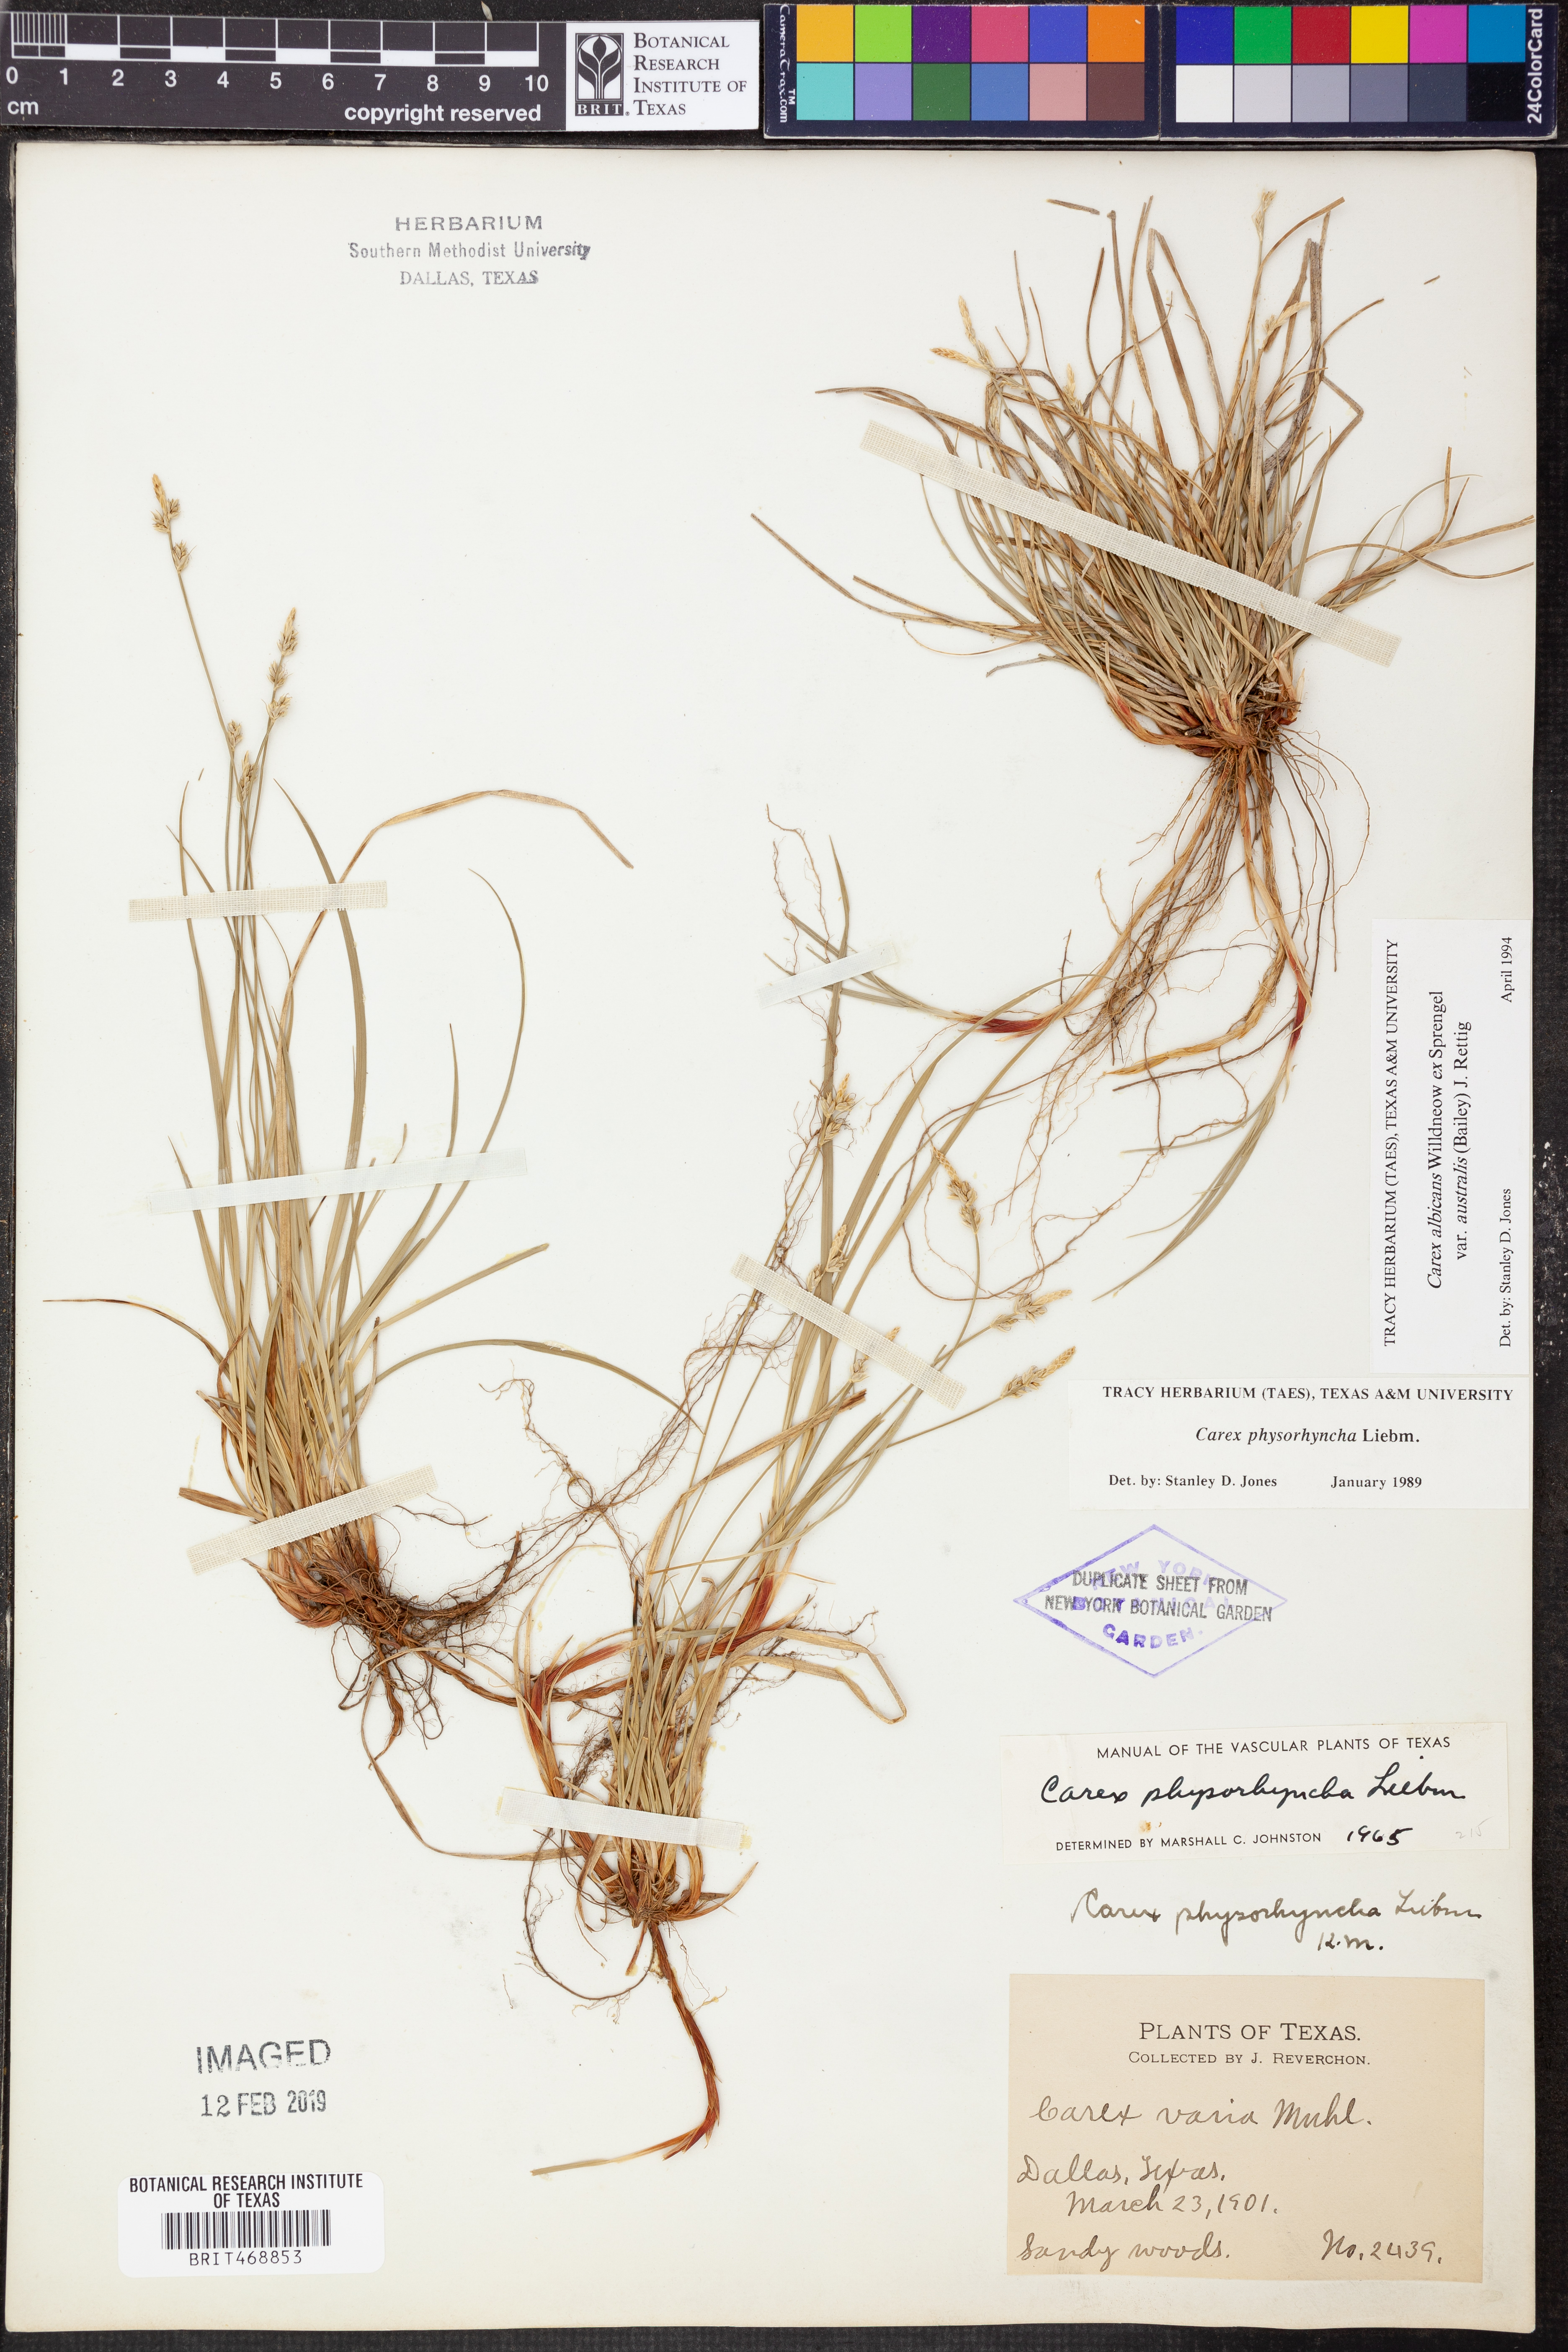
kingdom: Plantae
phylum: Tracheophyta
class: Liliopsida
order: Poales
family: Cyperaceae
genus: Carex
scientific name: Carex albicans
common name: Bellow-beaked sedge
